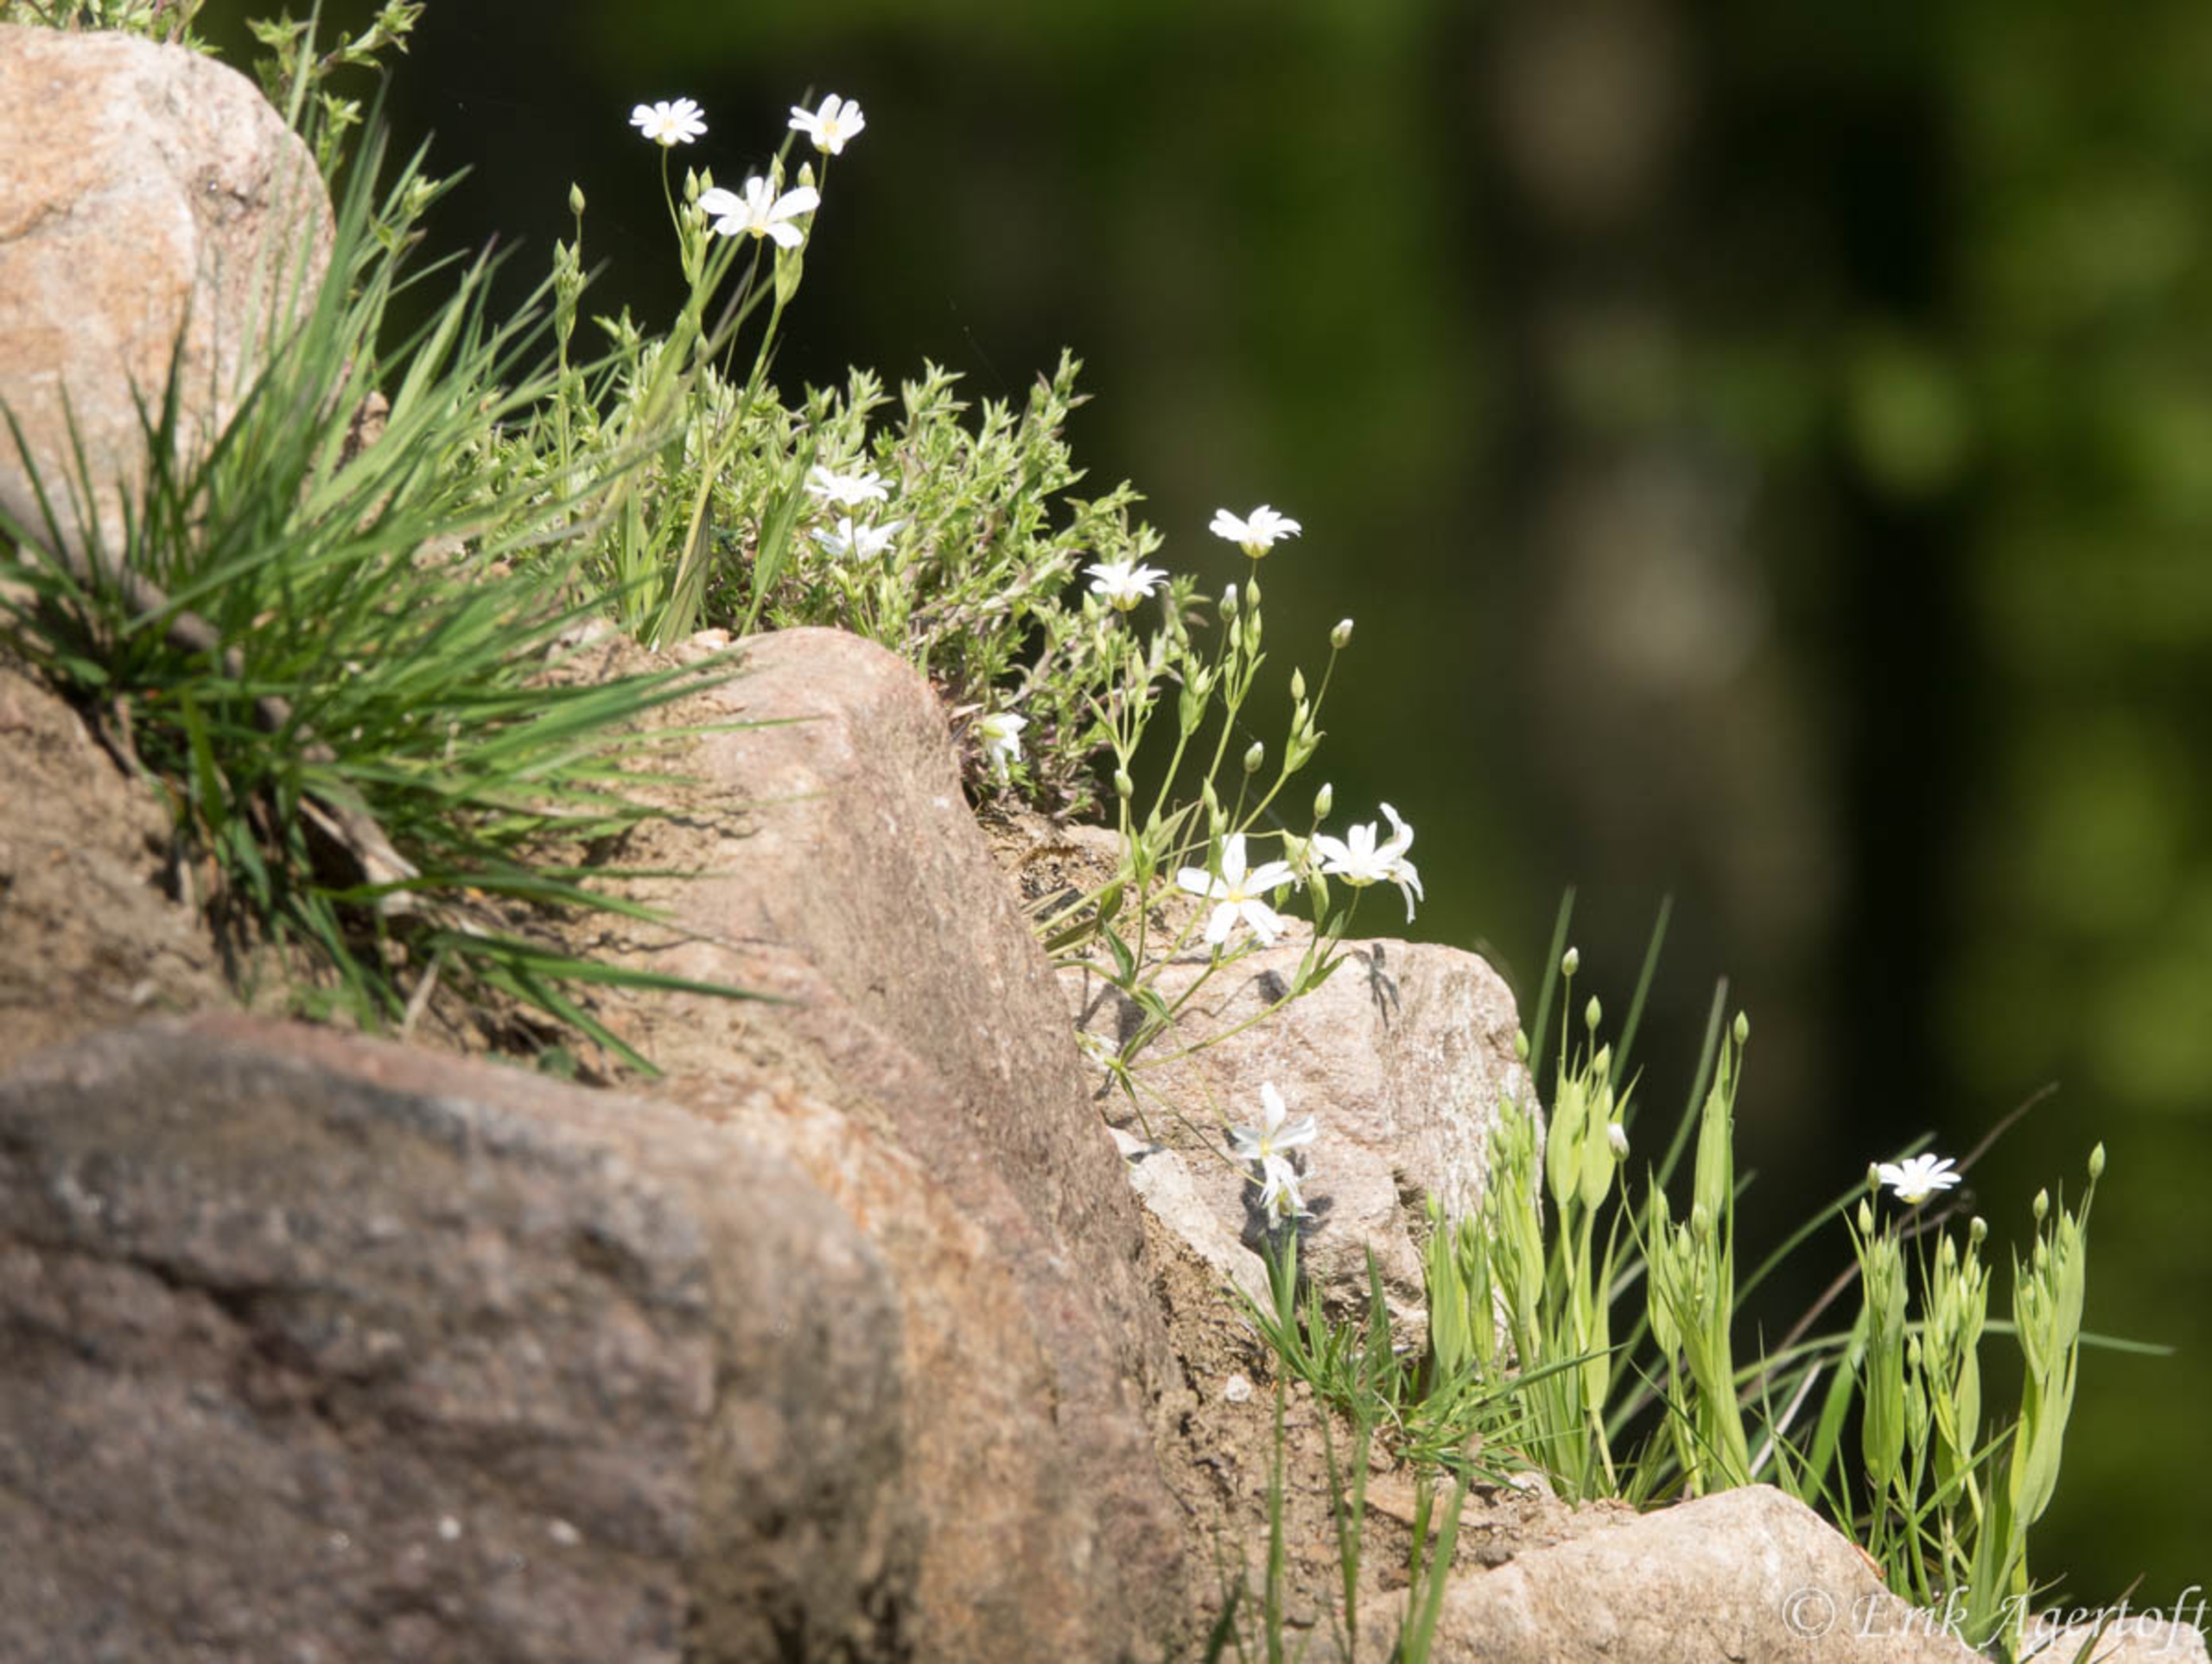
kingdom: Plantae
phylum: Tracheophyta
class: Magnoliopsida
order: Caryophyllales
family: Caryophyllaceae
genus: Rabelera
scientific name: Rabelera holostea
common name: Stor fladstjerne
